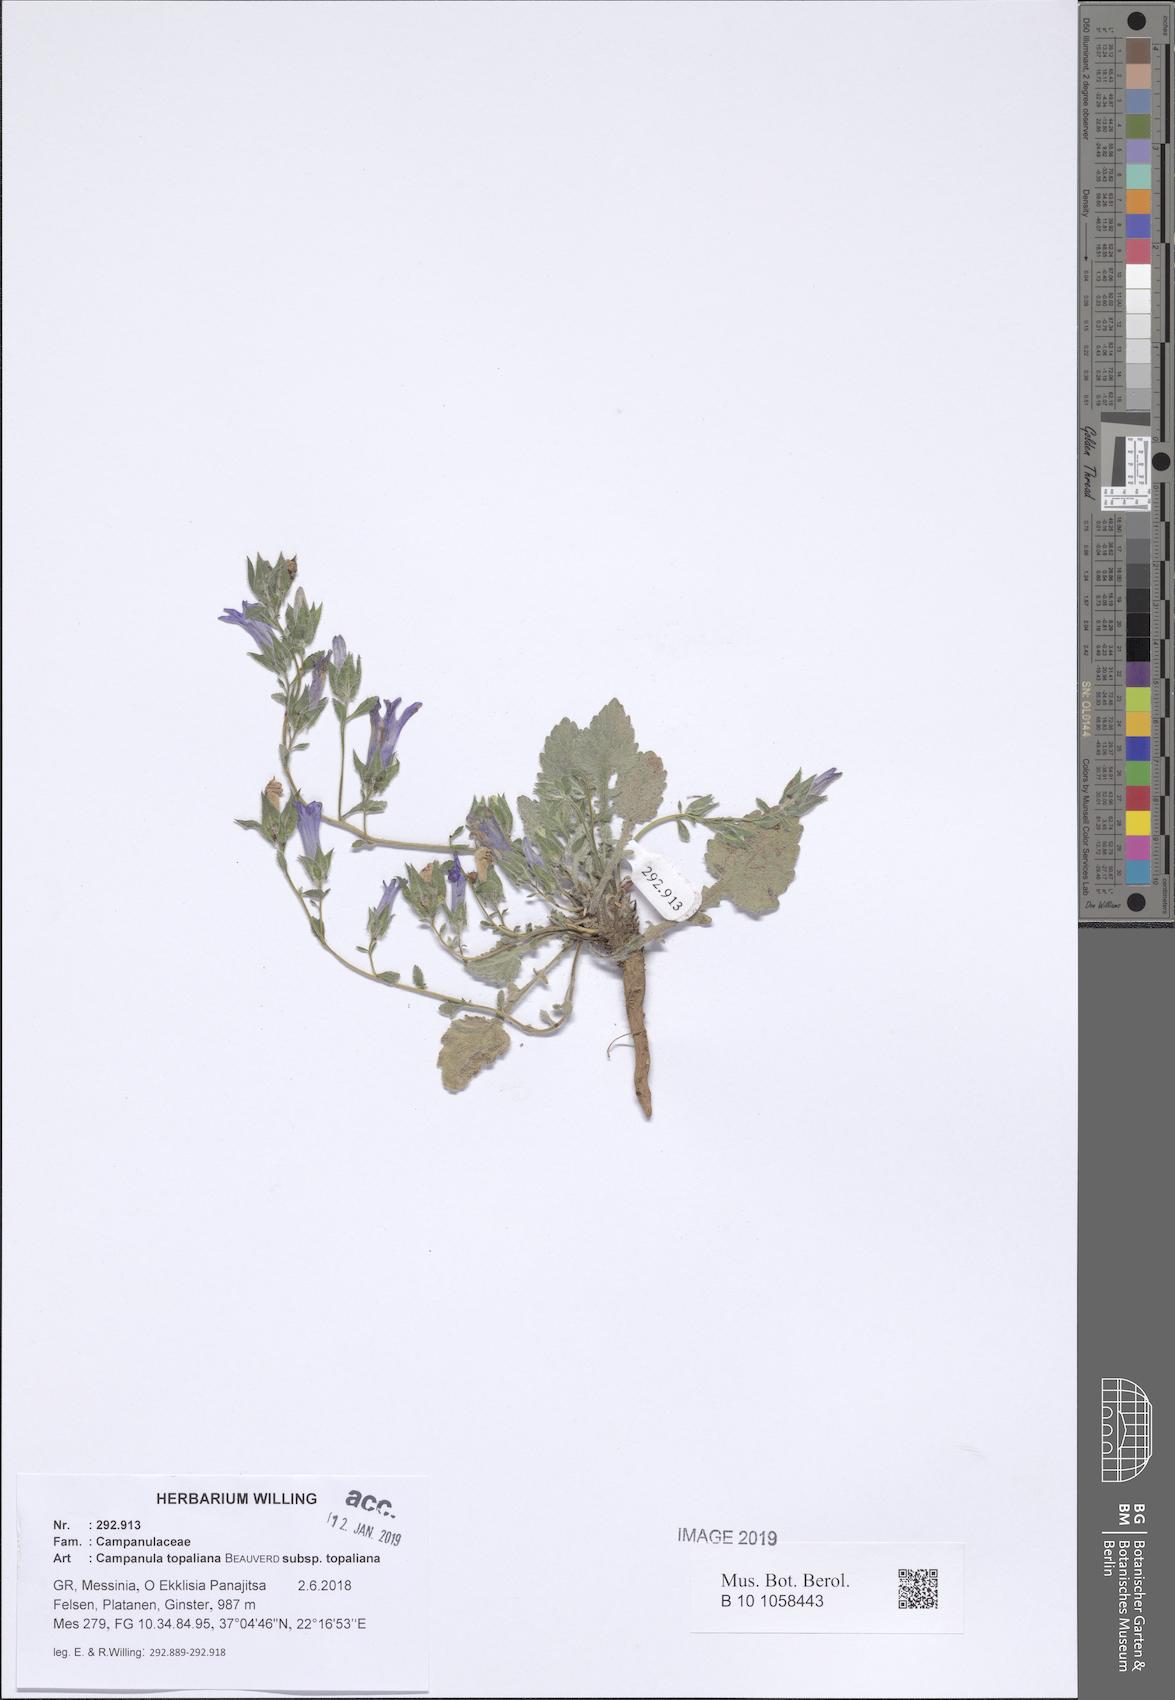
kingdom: Plantae
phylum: Tracheophyta
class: Magnoliopsida
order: Asterales
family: Campanulaceae
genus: Campanula
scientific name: Campanula topaliana
